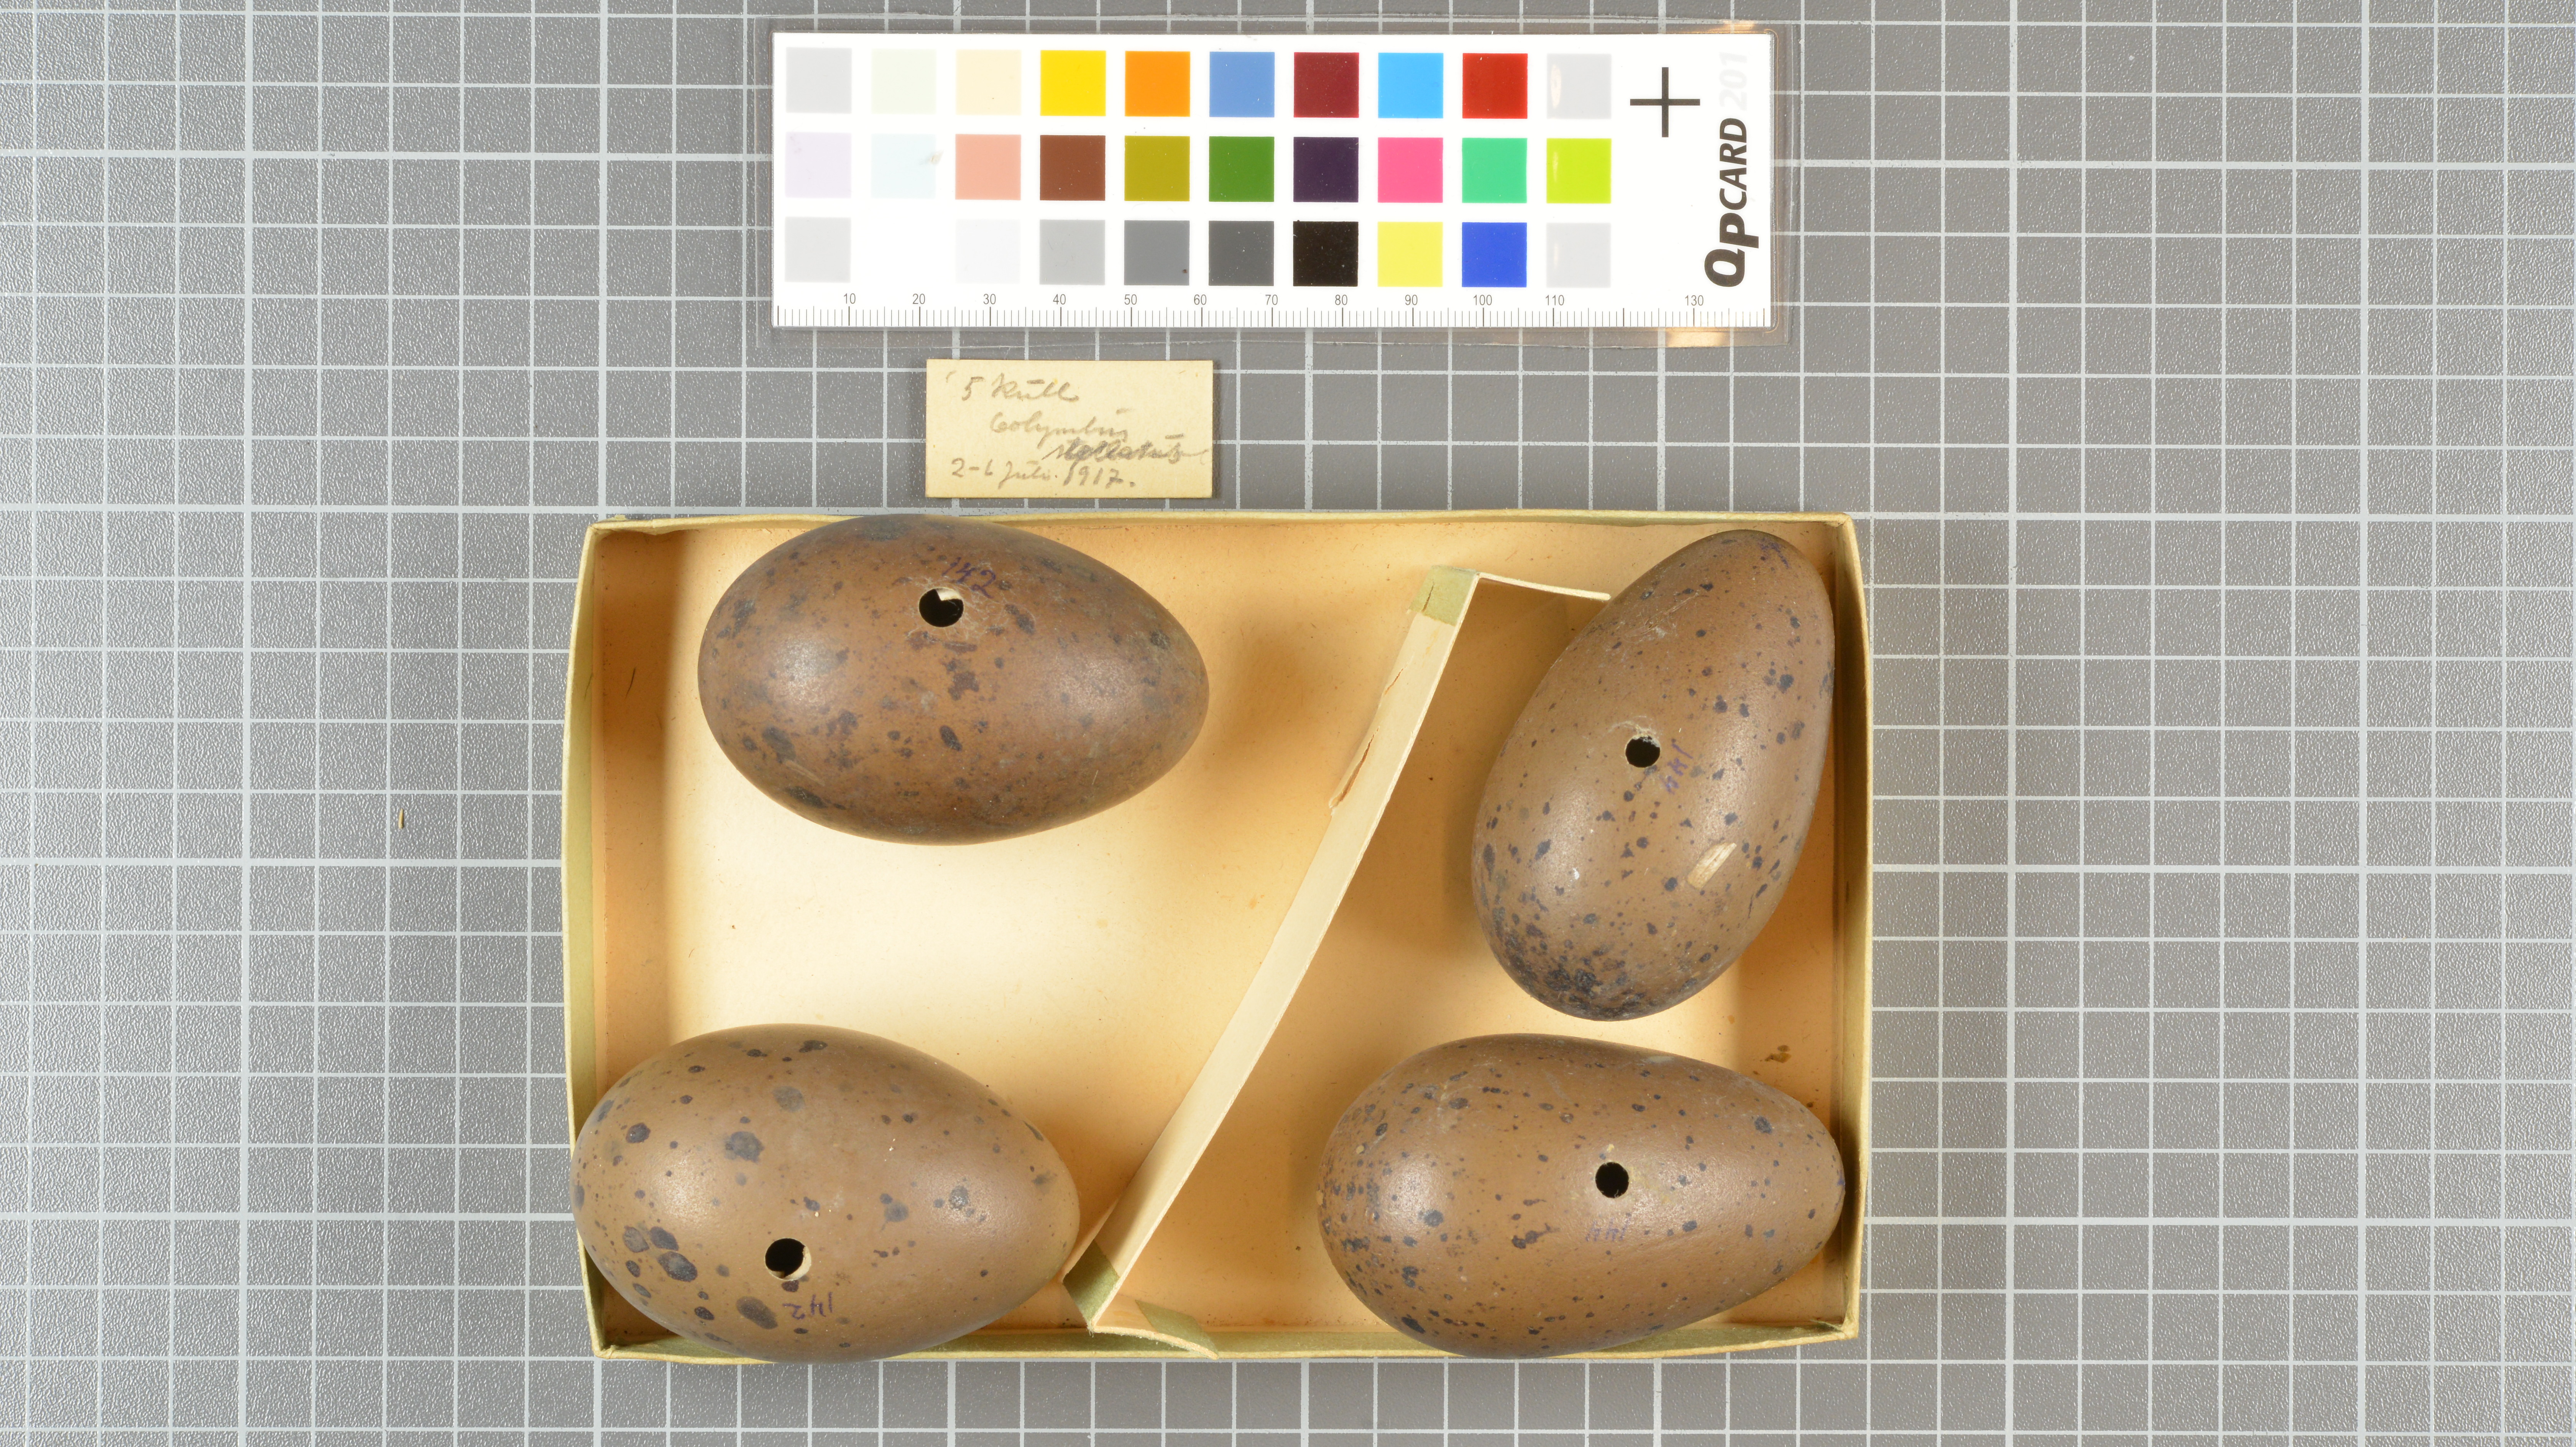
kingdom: Animalia
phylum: Chordata
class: Aves
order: Gaviiformes
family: Gaviidae
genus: Gavia
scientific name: Gavia stellata
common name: Red-throated loon
